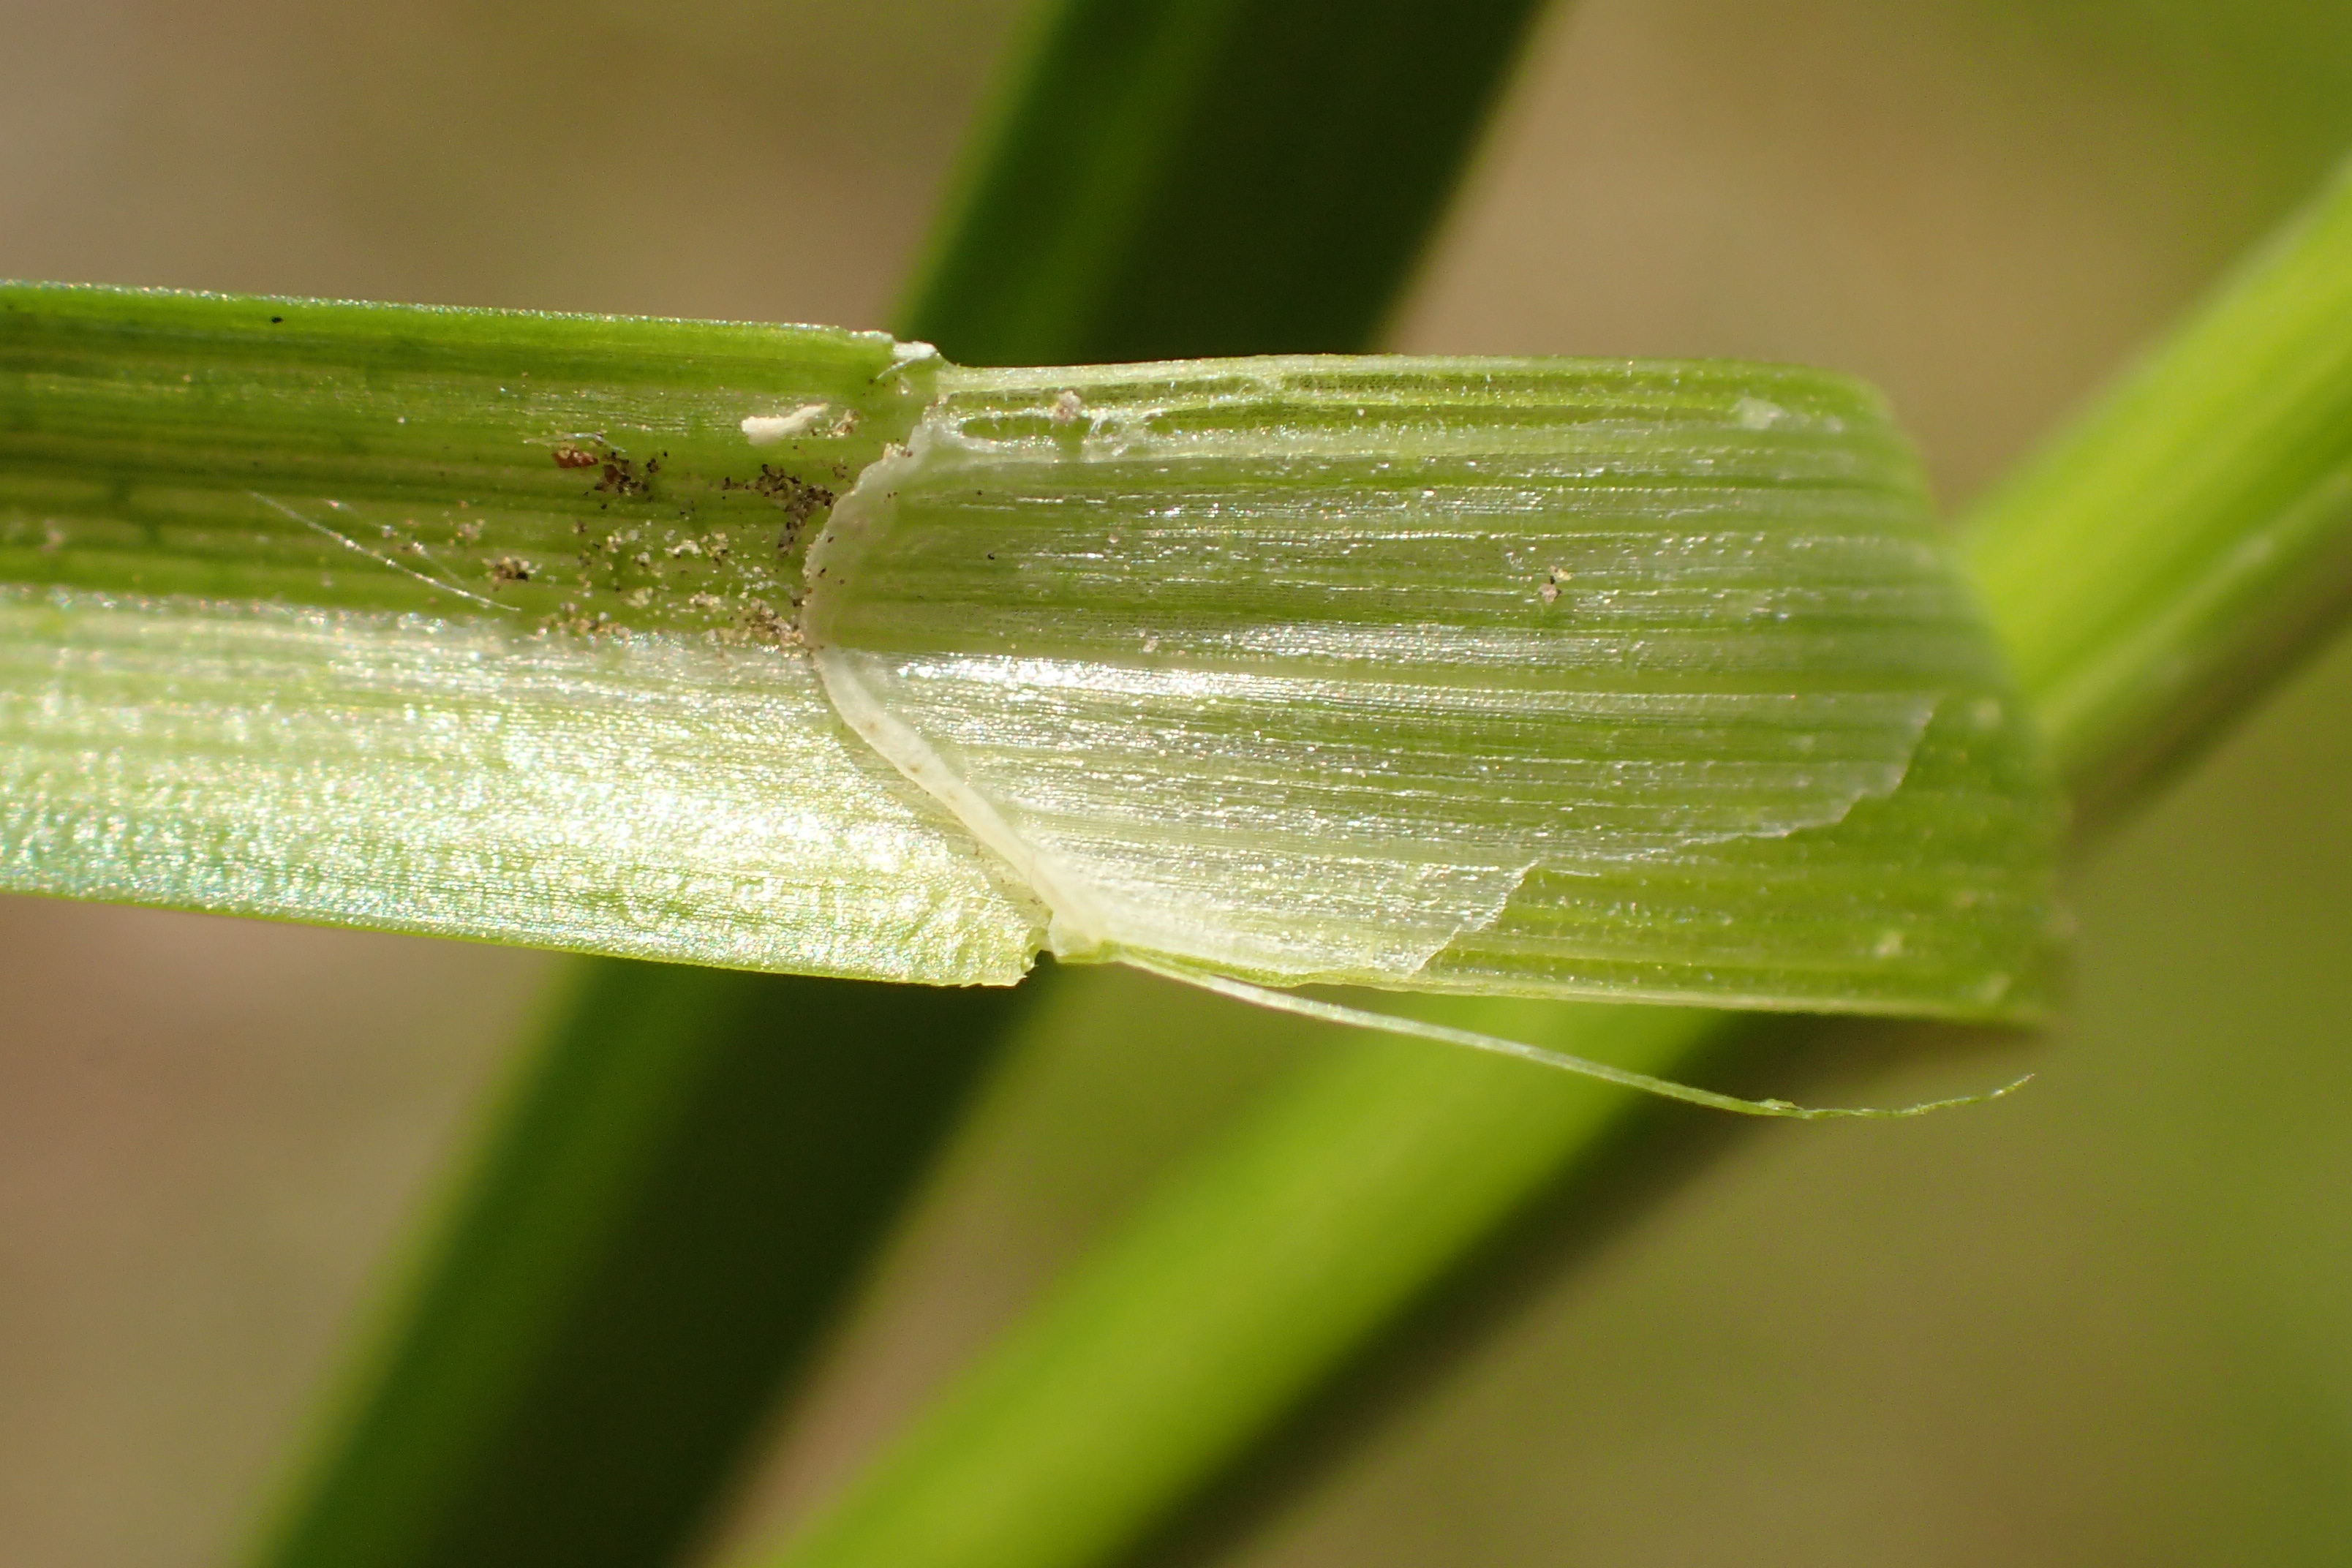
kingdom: Plantae
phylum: Tracheophyta
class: Liliopsida
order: Poales
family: Cyperaceae
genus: Carex
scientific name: Carex divulsa
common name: Mellembrudt star
